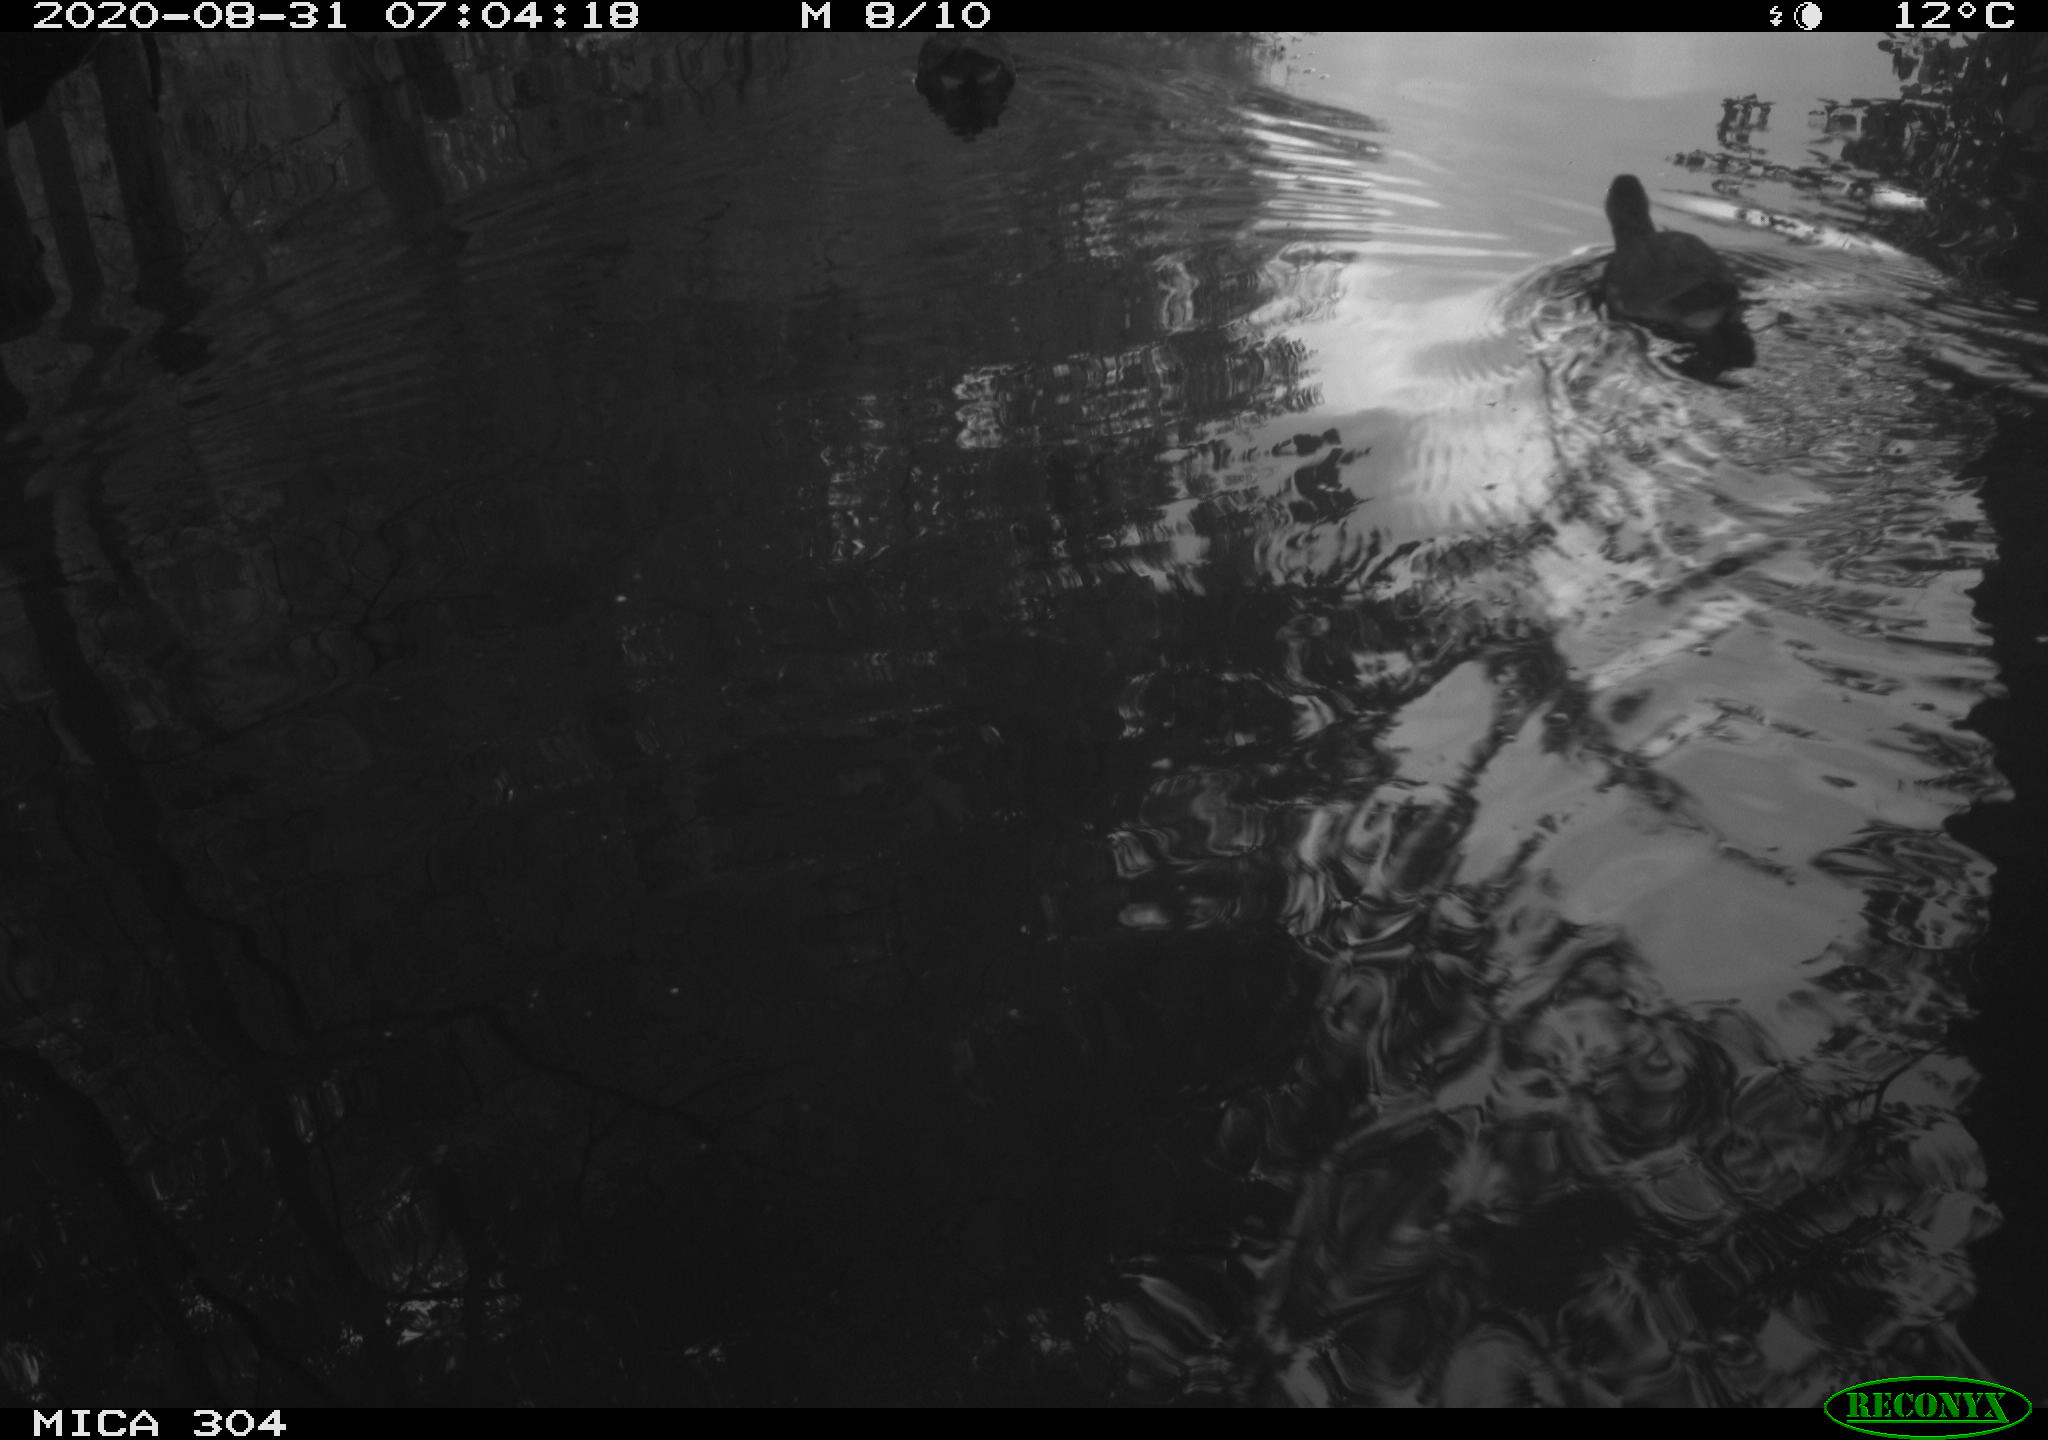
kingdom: Animalia
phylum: Chordata
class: Aves
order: Gruiformes
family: Rallidae
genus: Fulica
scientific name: Fulica atra
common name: Eurasian coot
